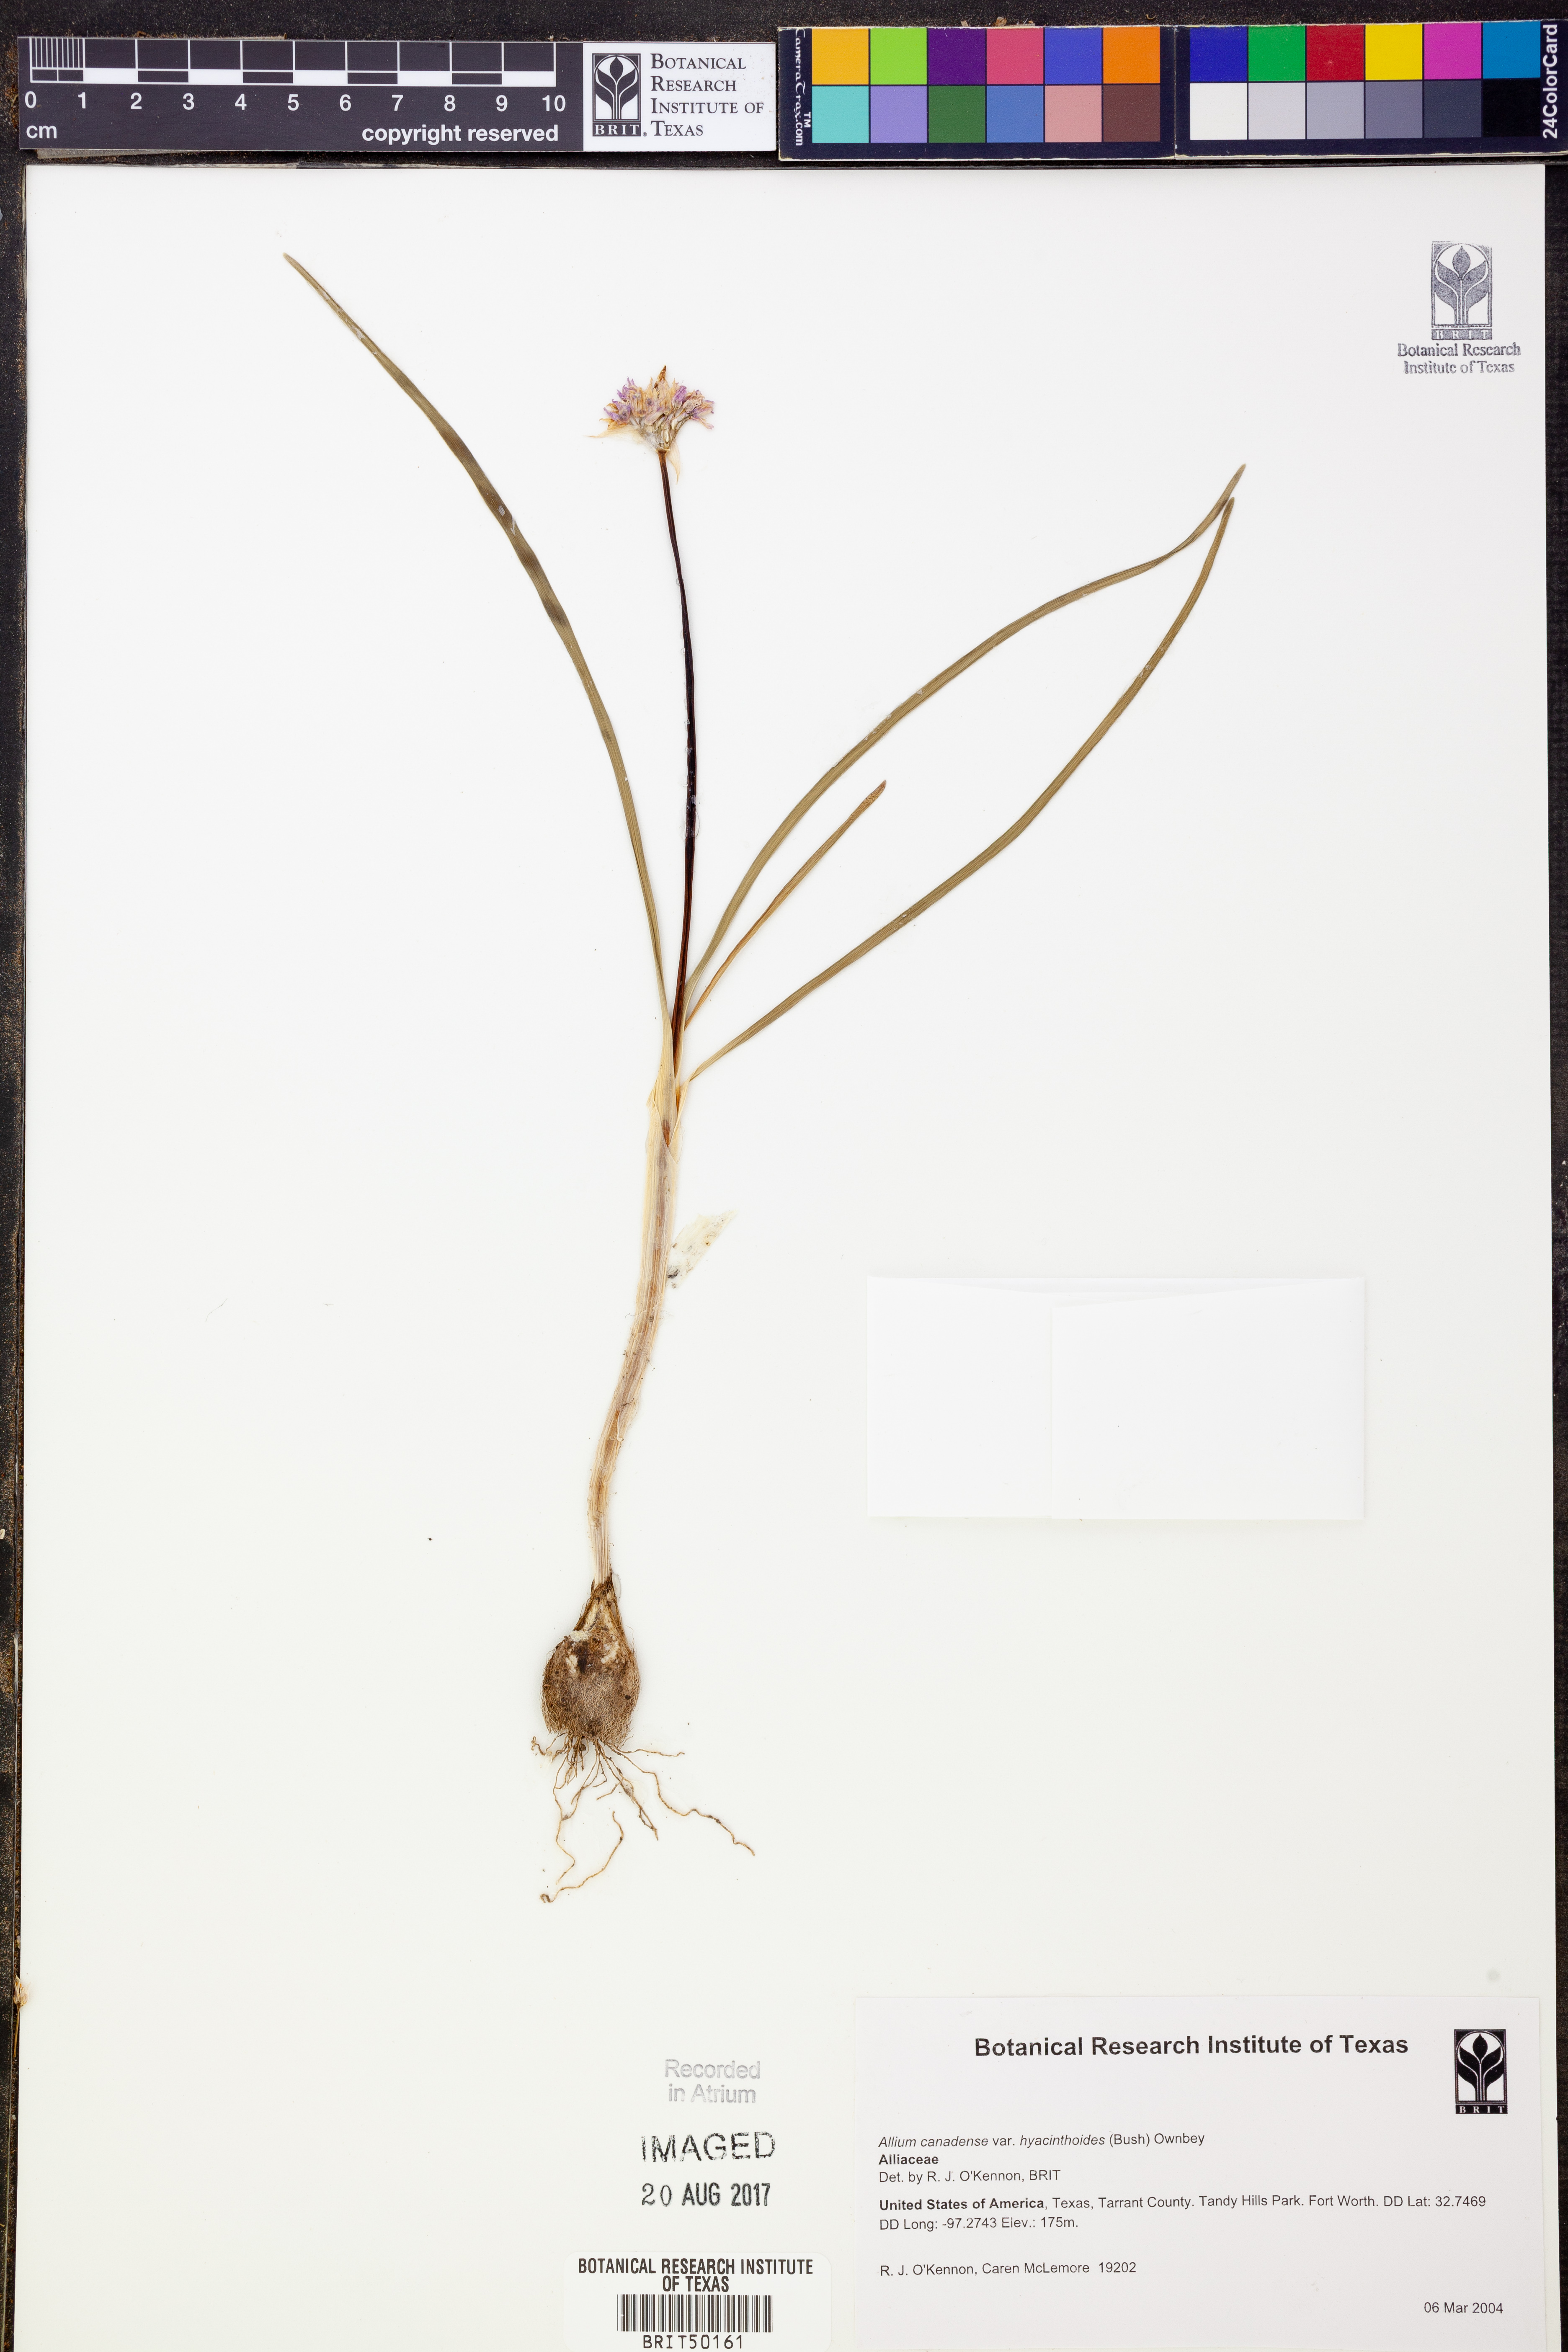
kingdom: Plantae
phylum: Tracheophyta
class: Liliopsida
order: Asparagales
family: Amaryllidaceae
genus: Allium
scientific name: Allium canadense
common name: Meadow garlic
